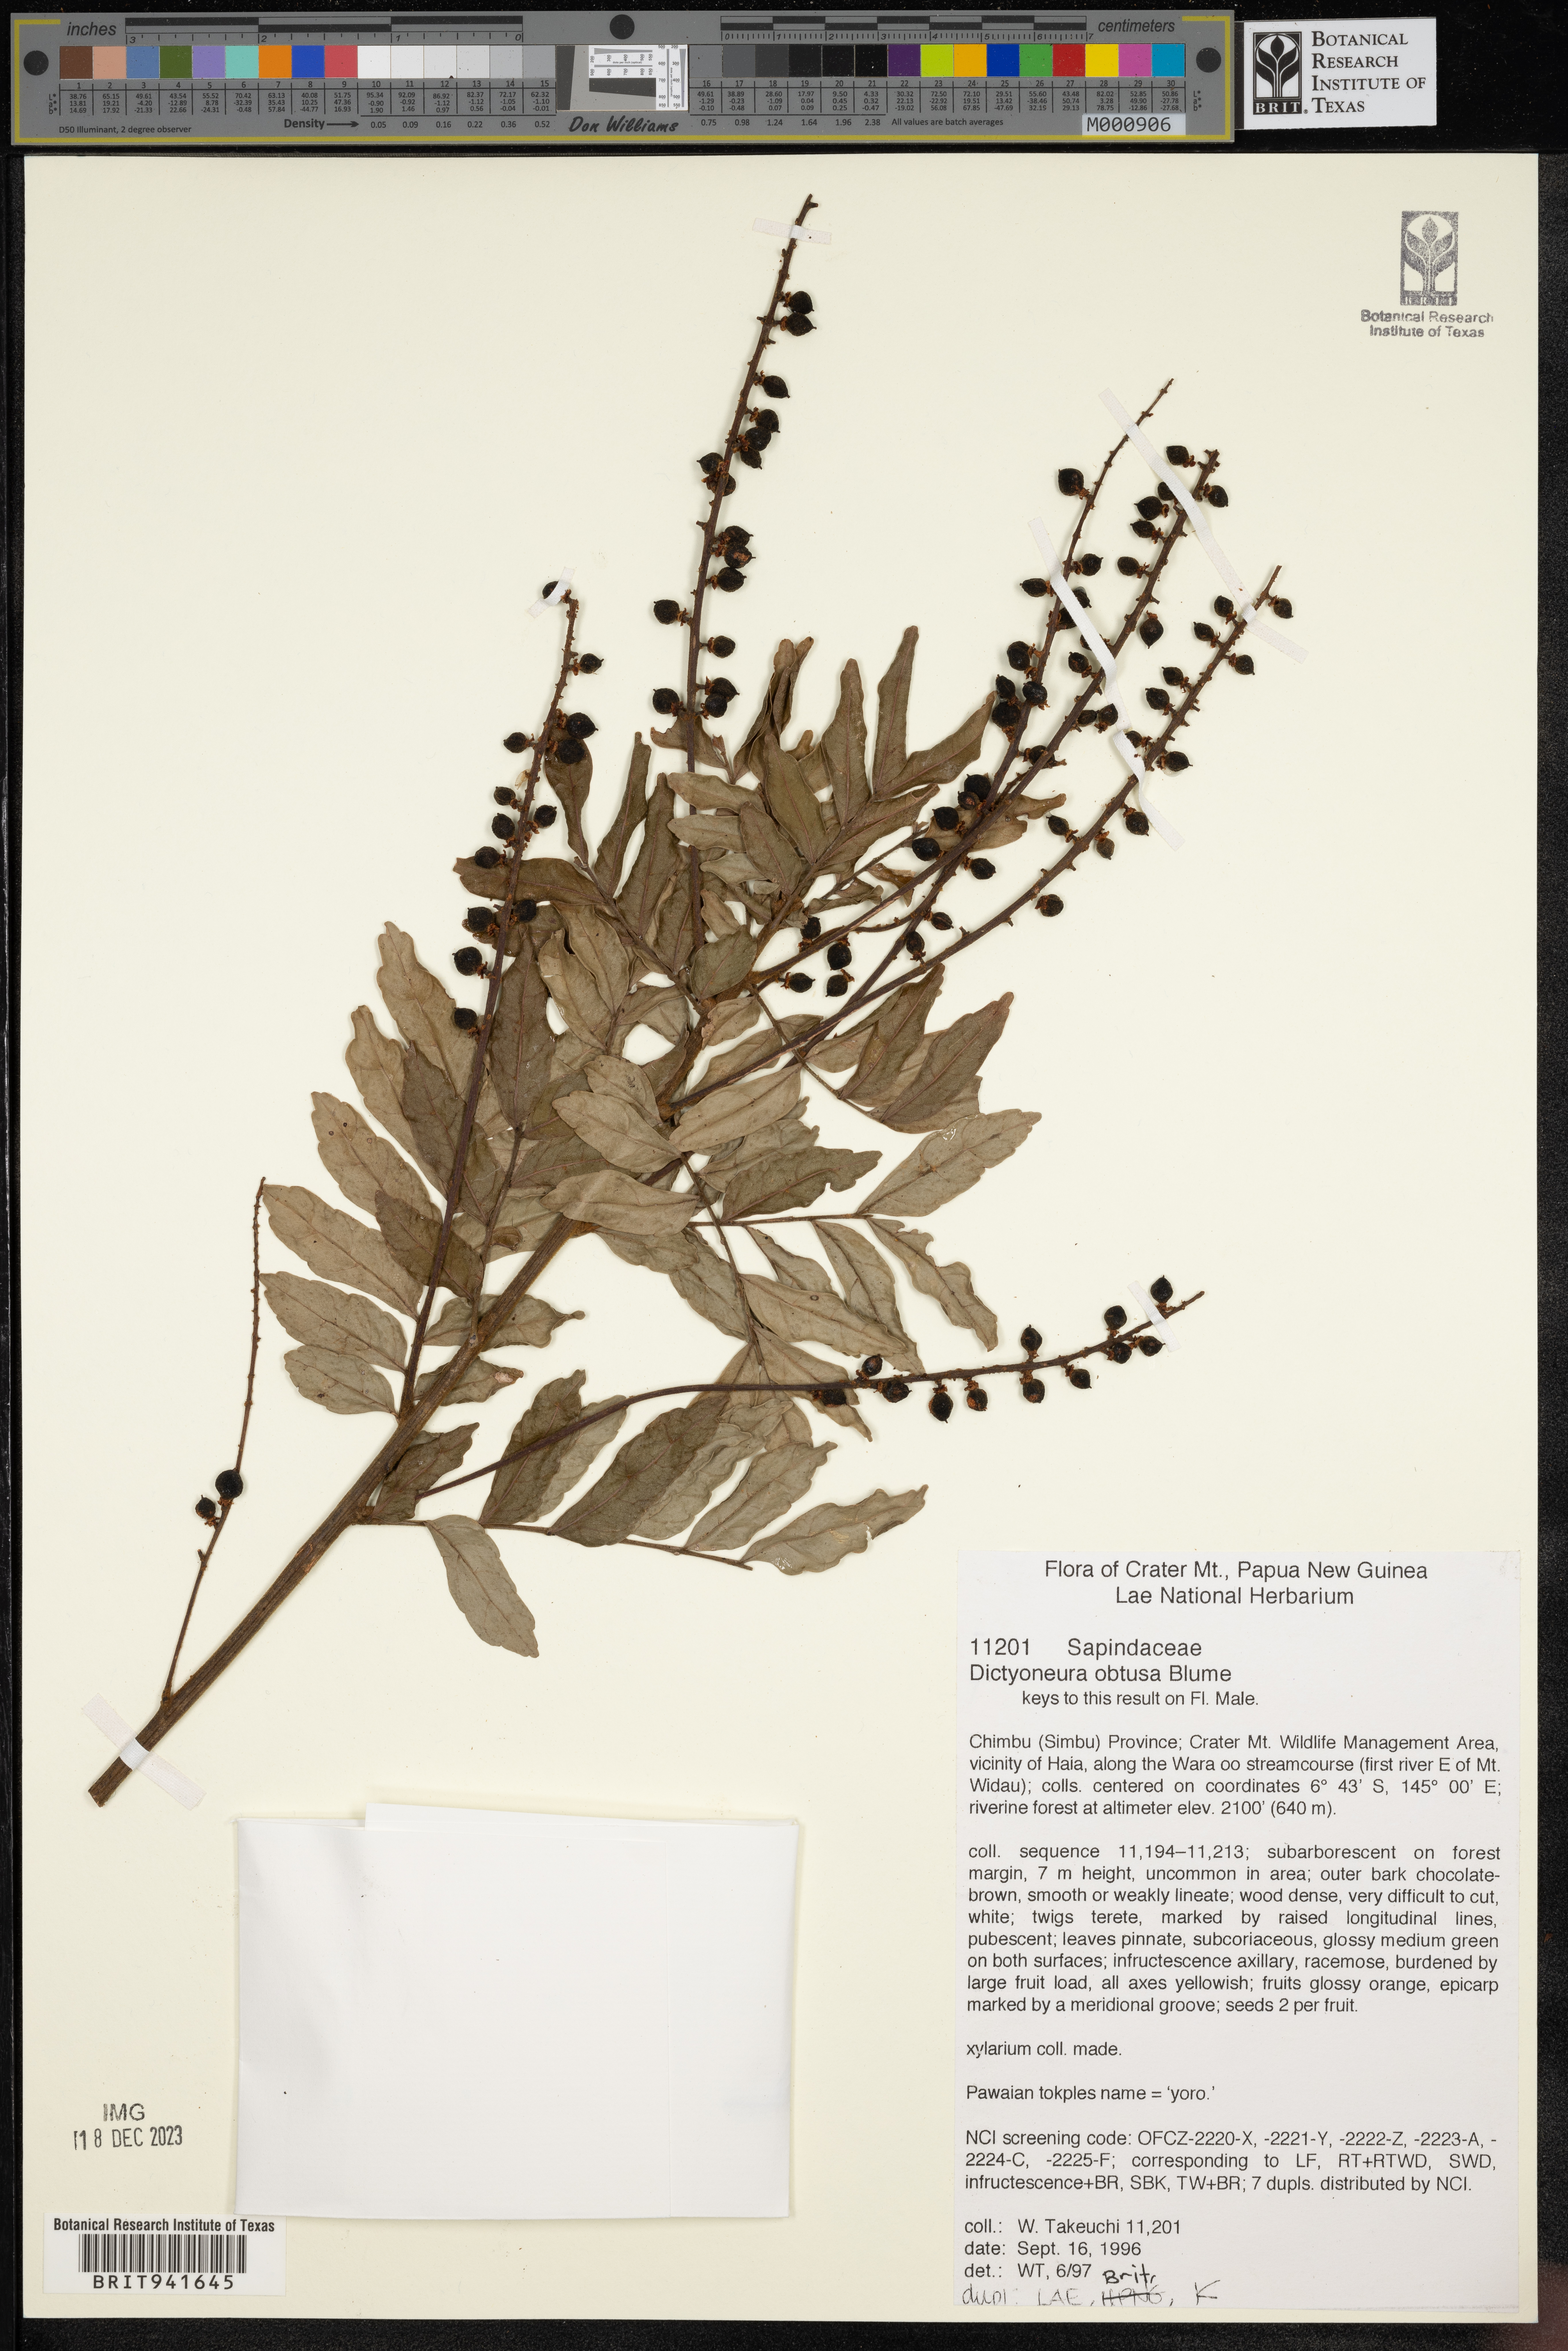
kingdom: Plantae
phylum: Tracheophyta
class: Magnoliopsida
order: Sapindales
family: Sapindaceae
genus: Dictyoneura
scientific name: Dictyoneura
